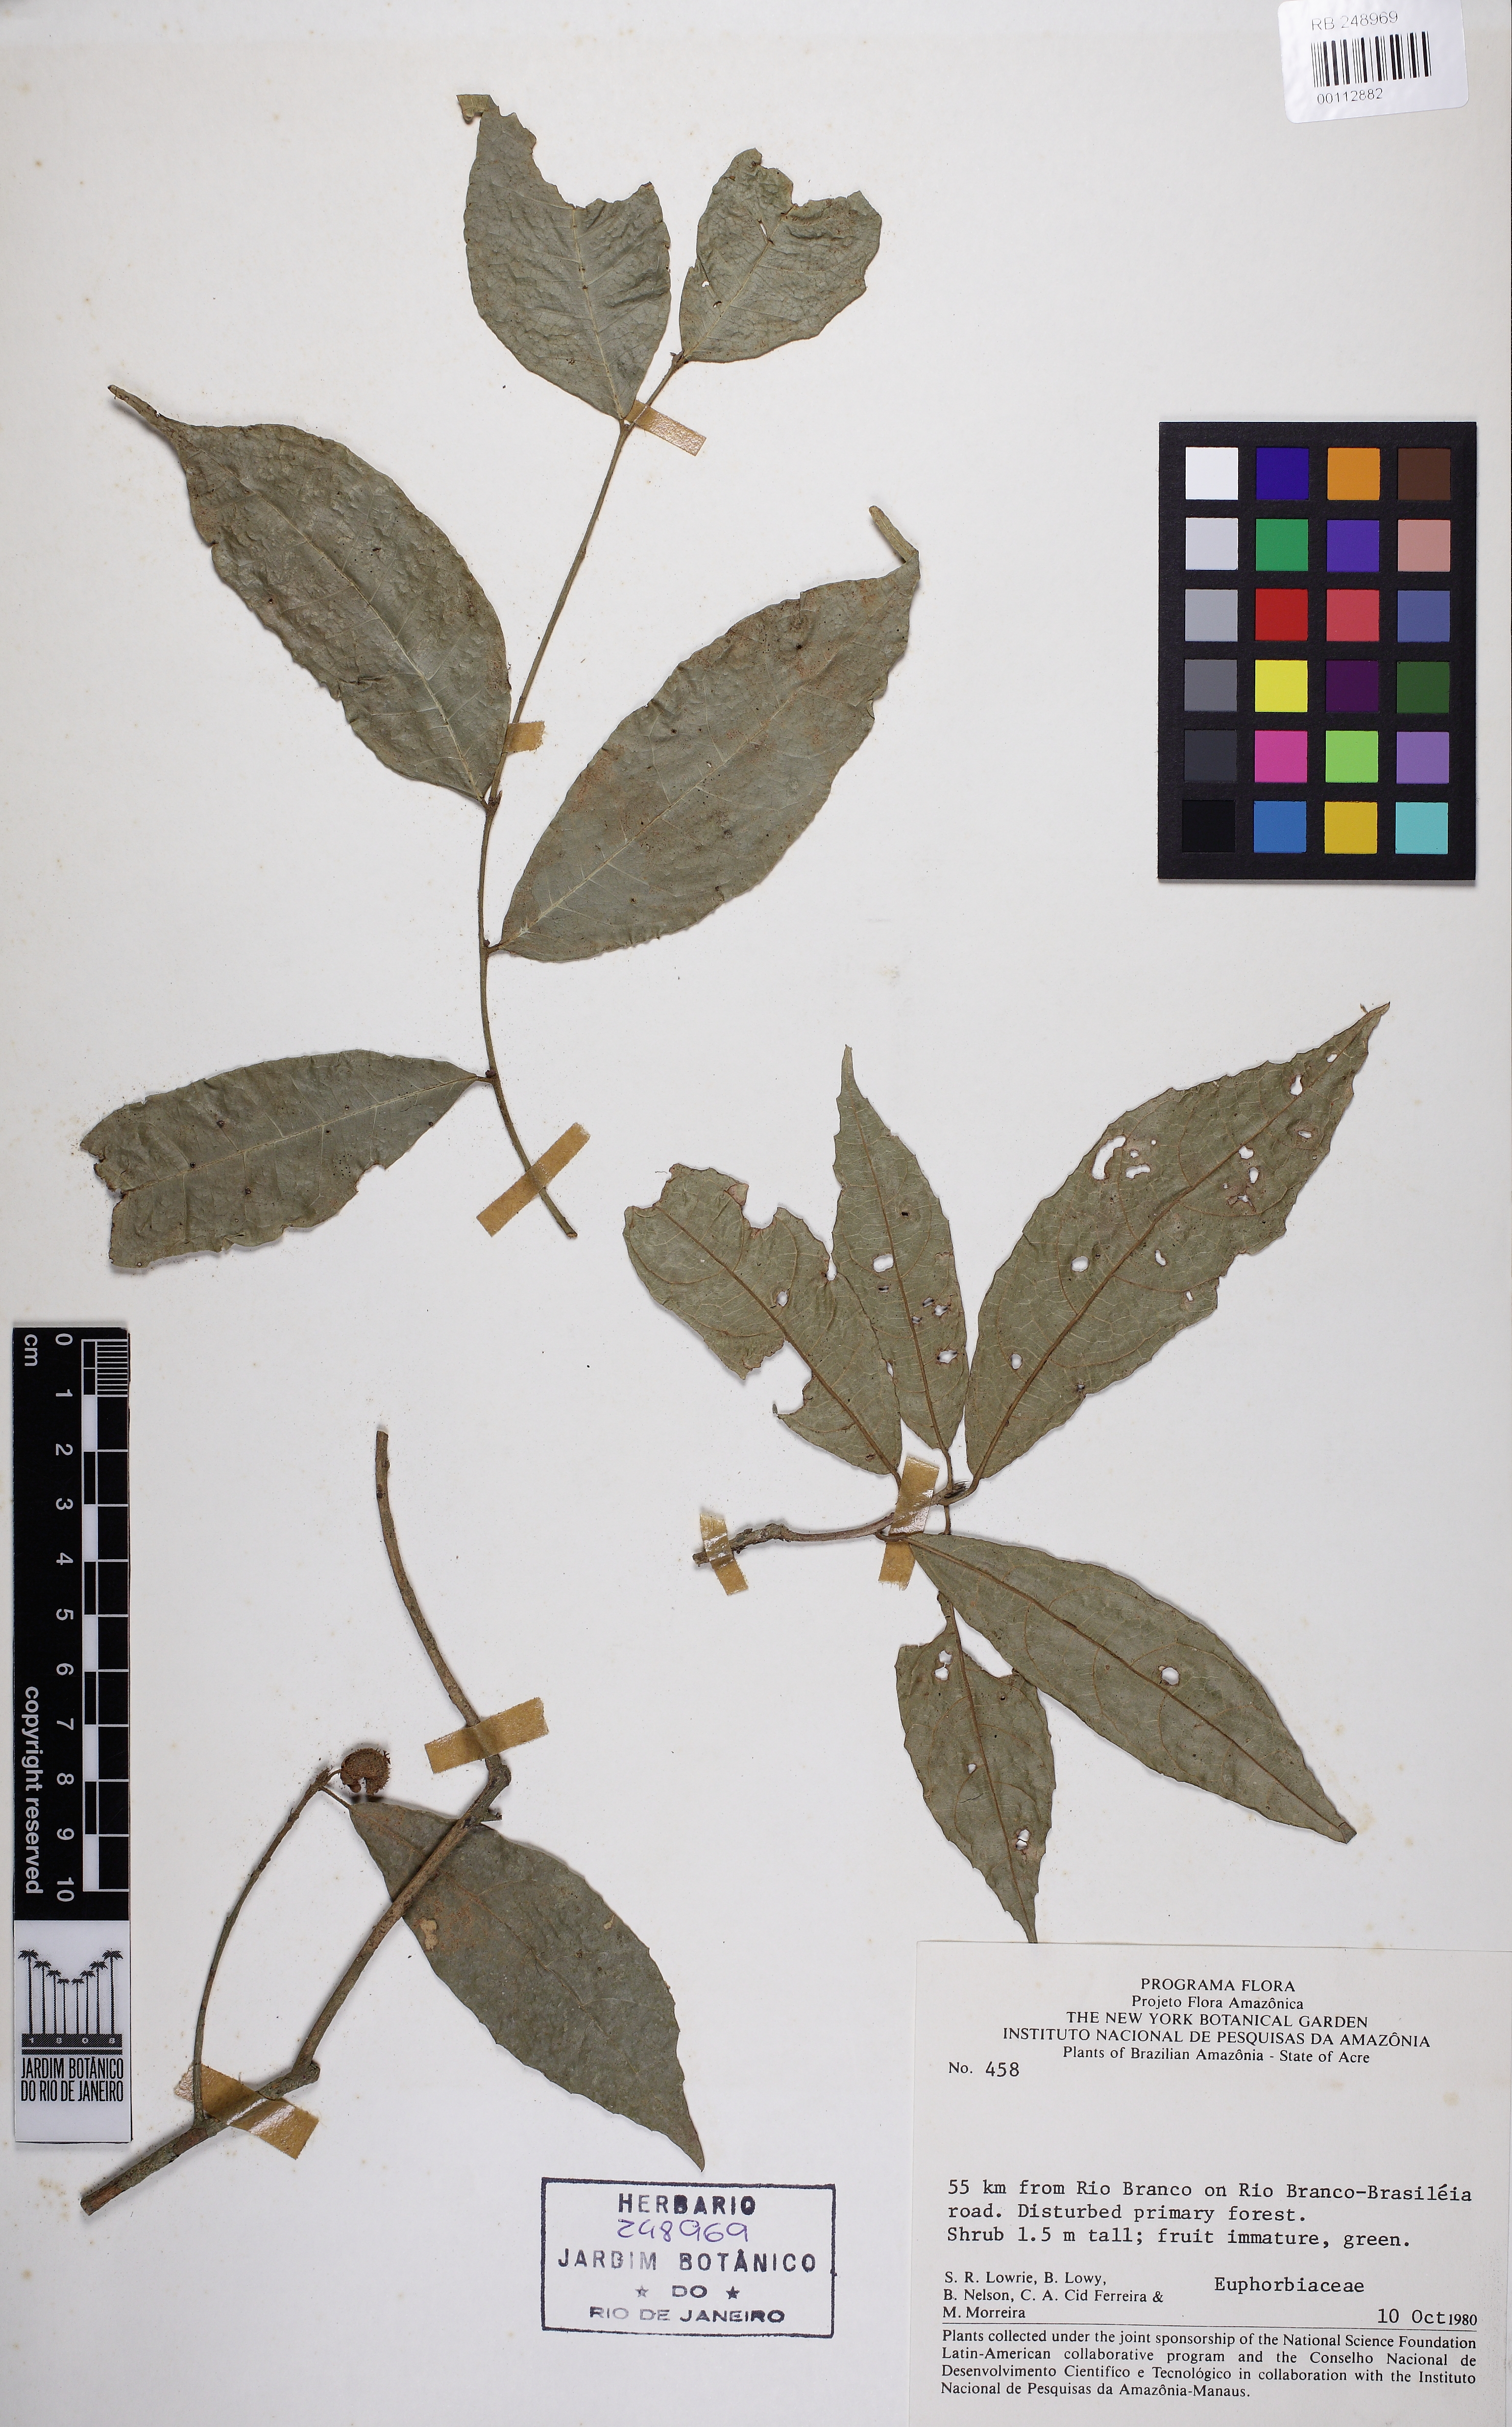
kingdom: Plantae
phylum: Tracheophyta
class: Magnoliopsida
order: Malpighiales
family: Euphorbiaceae
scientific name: Euphorbiaceae
